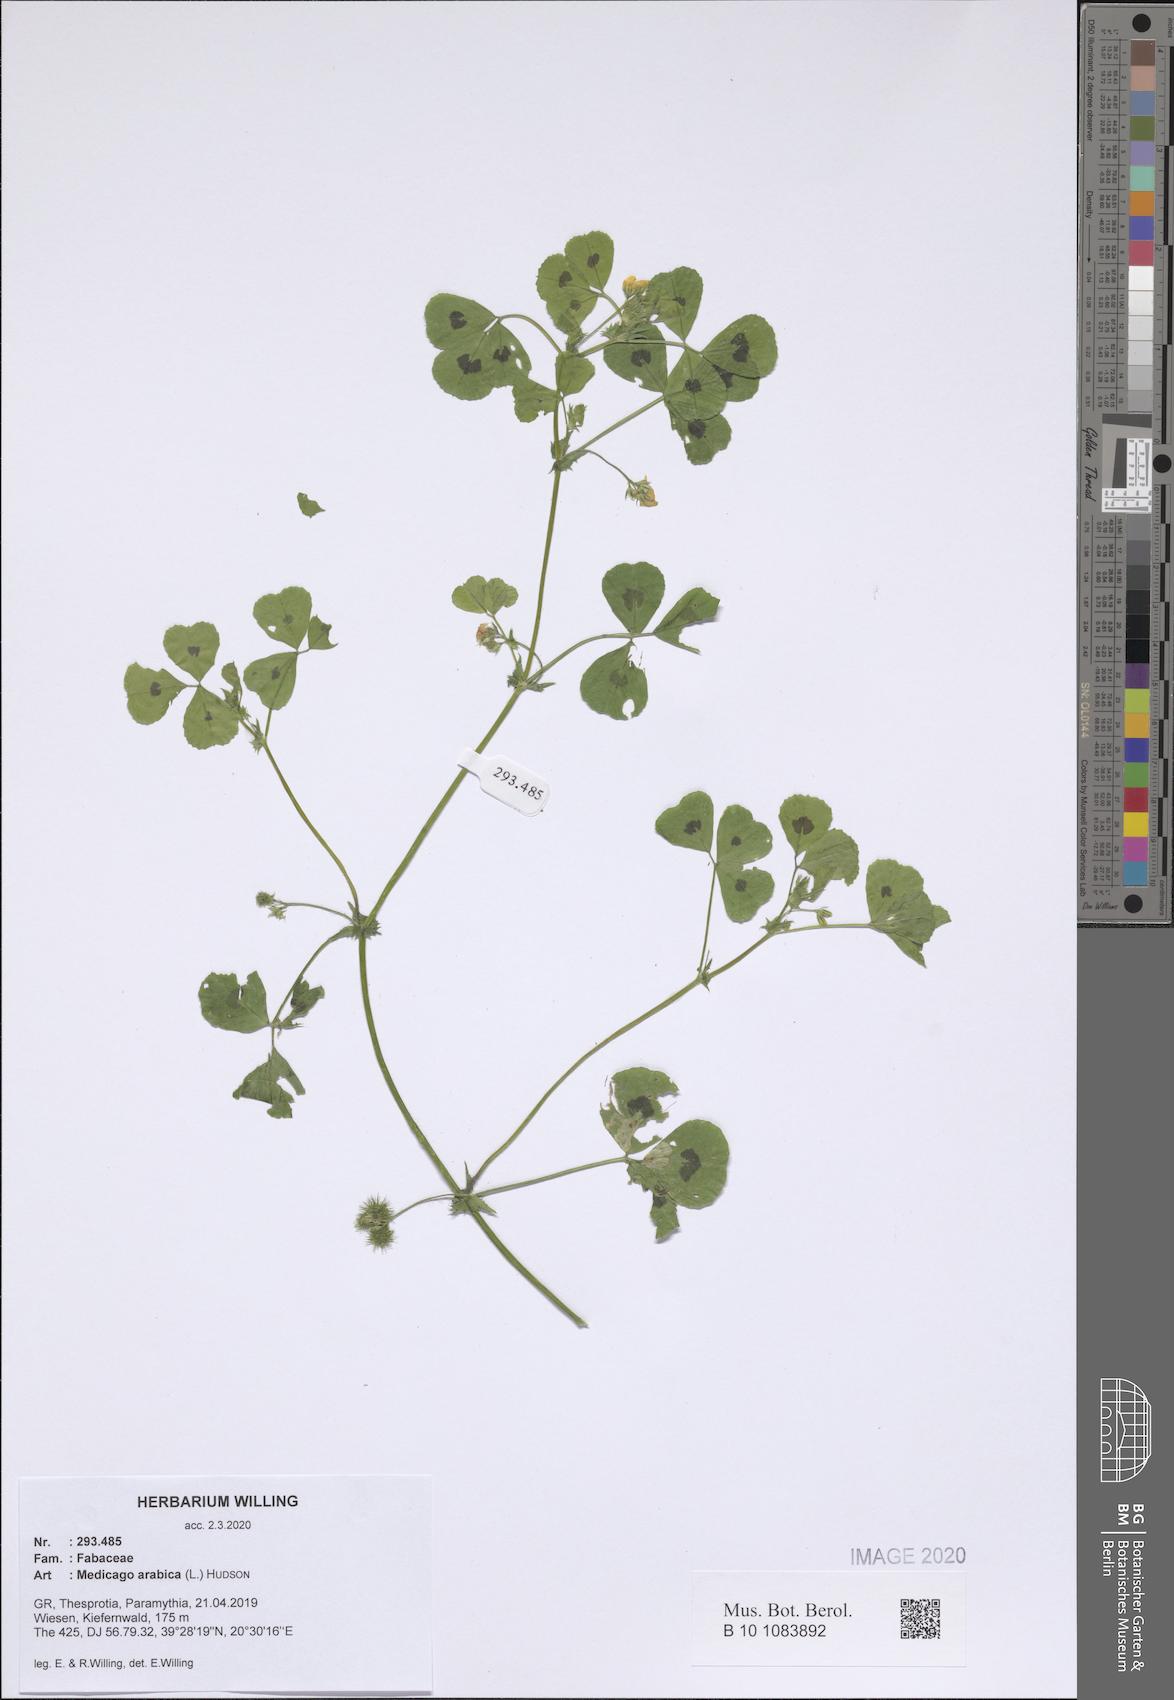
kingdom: Plantae
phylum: Tracheophyta
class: Magnoliopsida
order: Fabales
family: Fabaceae
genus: Medicago
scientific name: Medicago arabica
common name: Spotted medick
